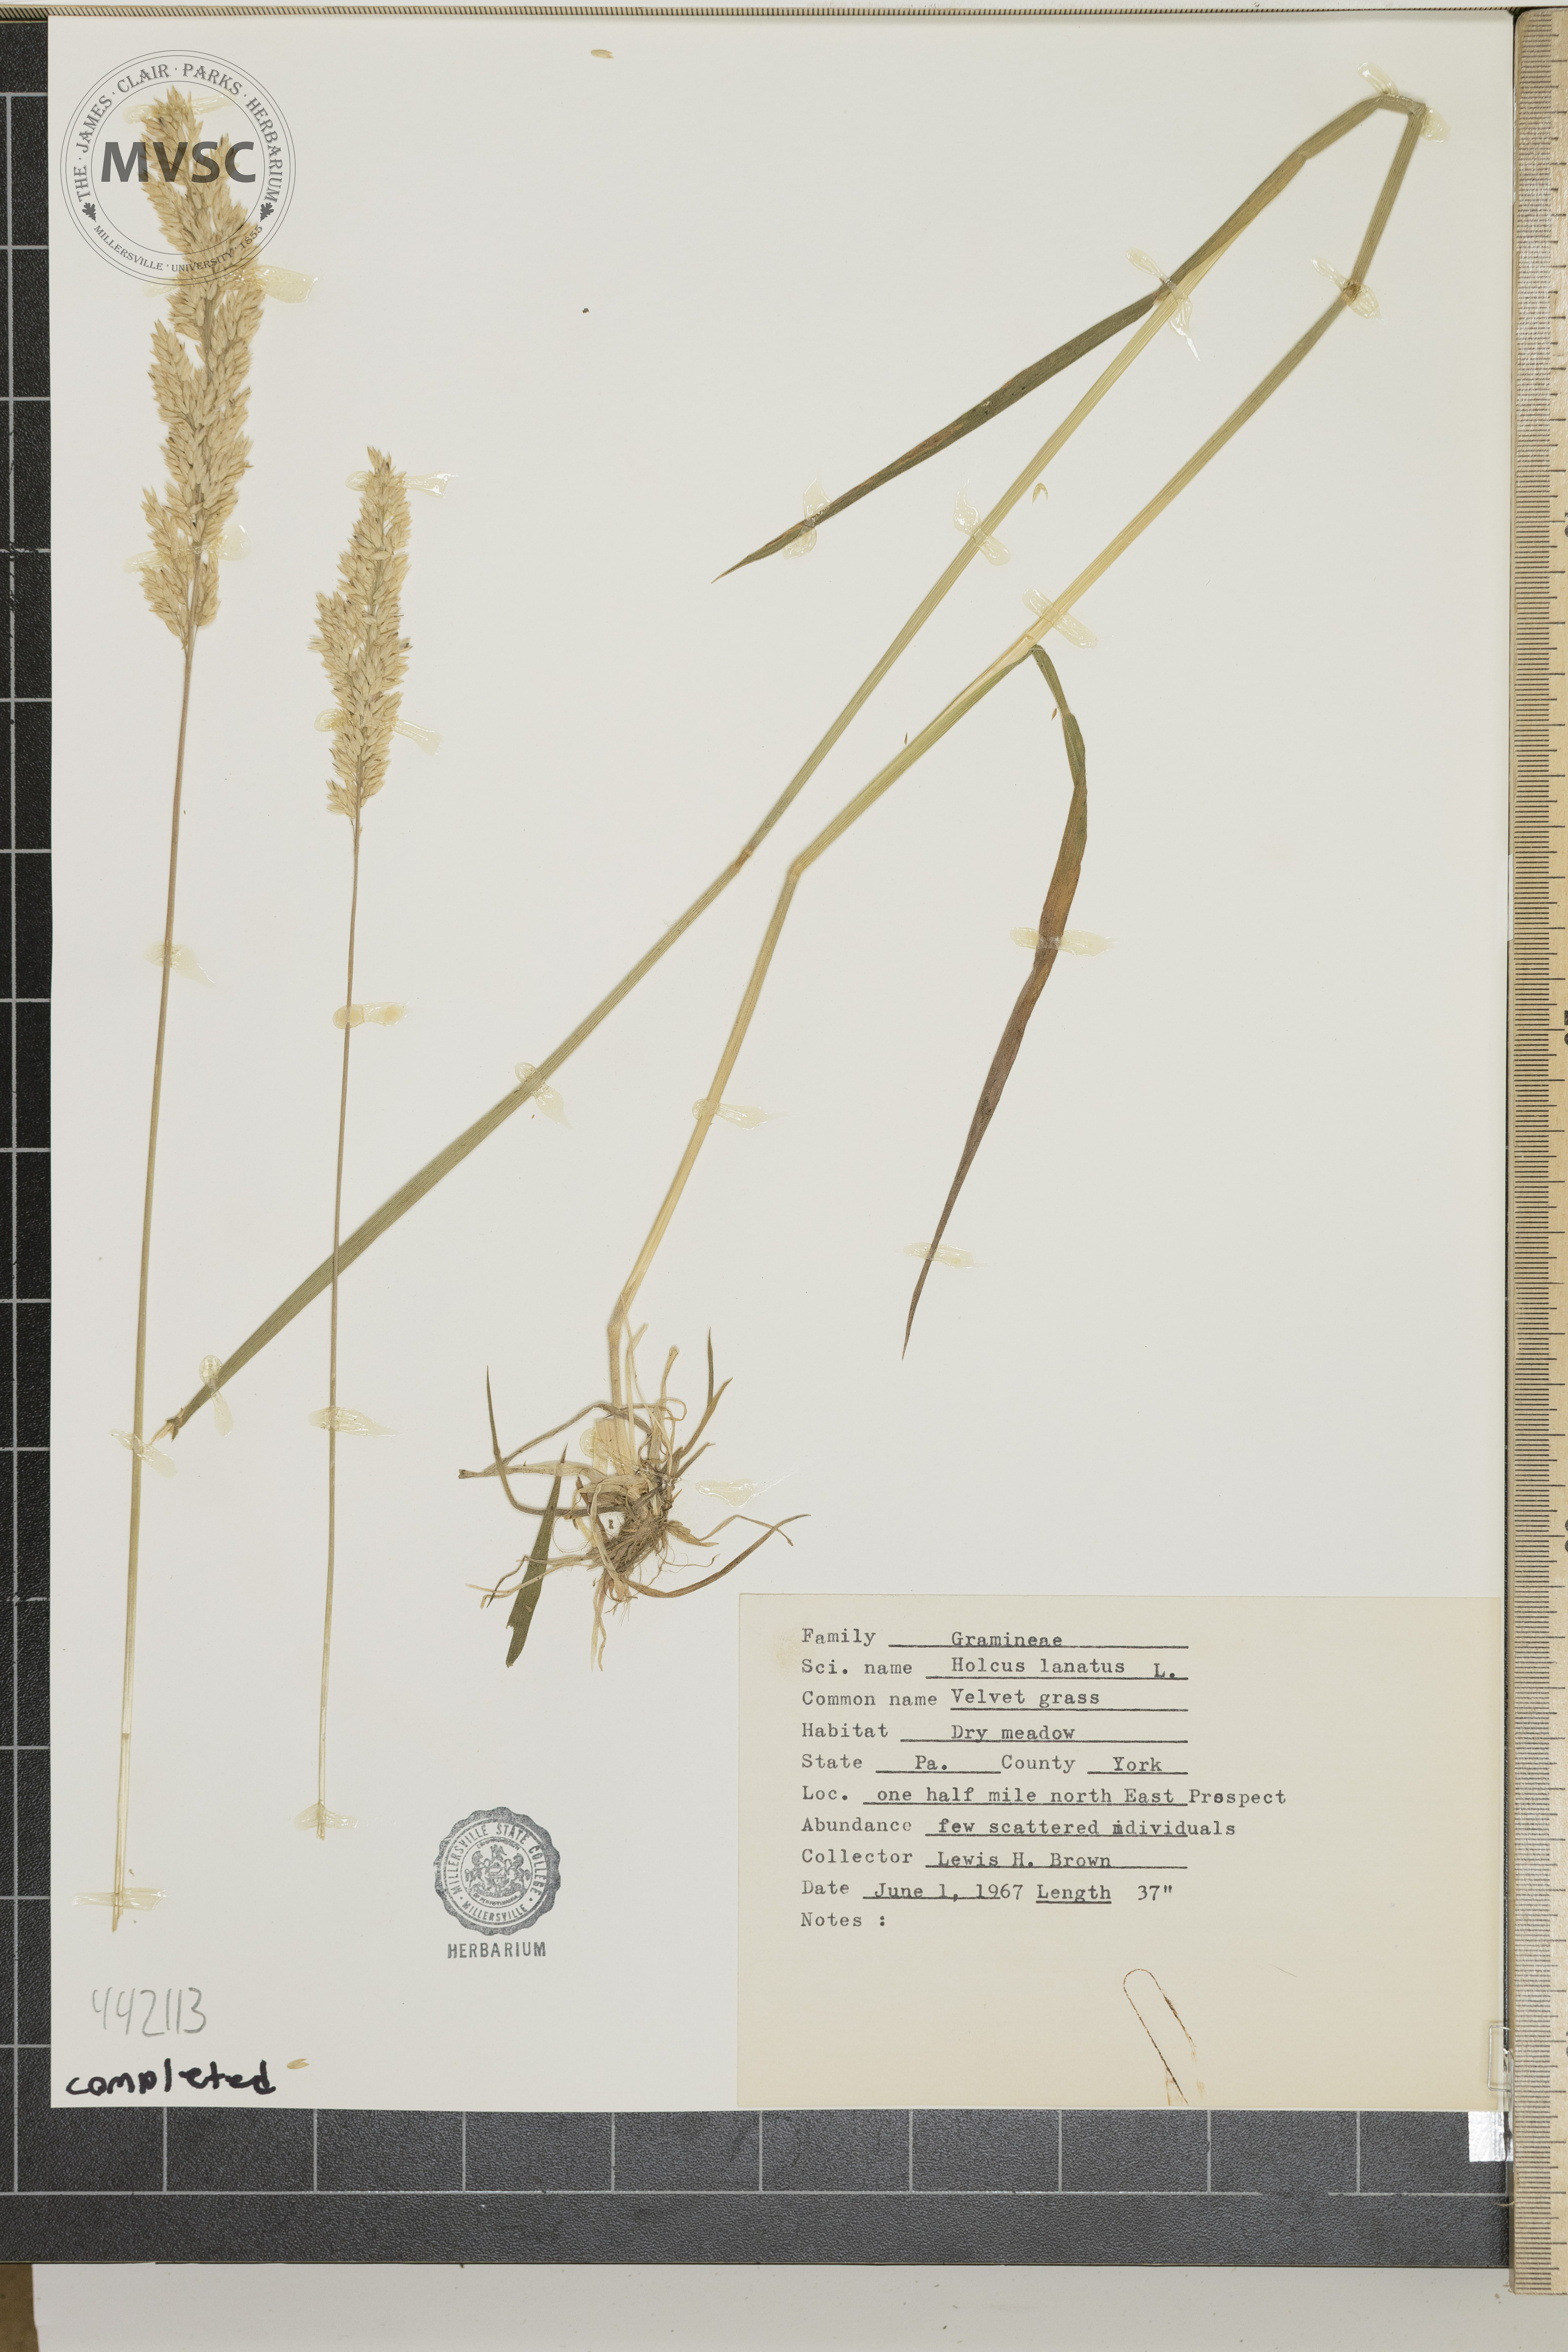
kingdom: Plantae
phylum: Tracheophyta
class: Liliopsida
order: Poales
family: Poaceae
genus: Holcus
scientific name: Holcus lanatus
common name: Velvet grass
